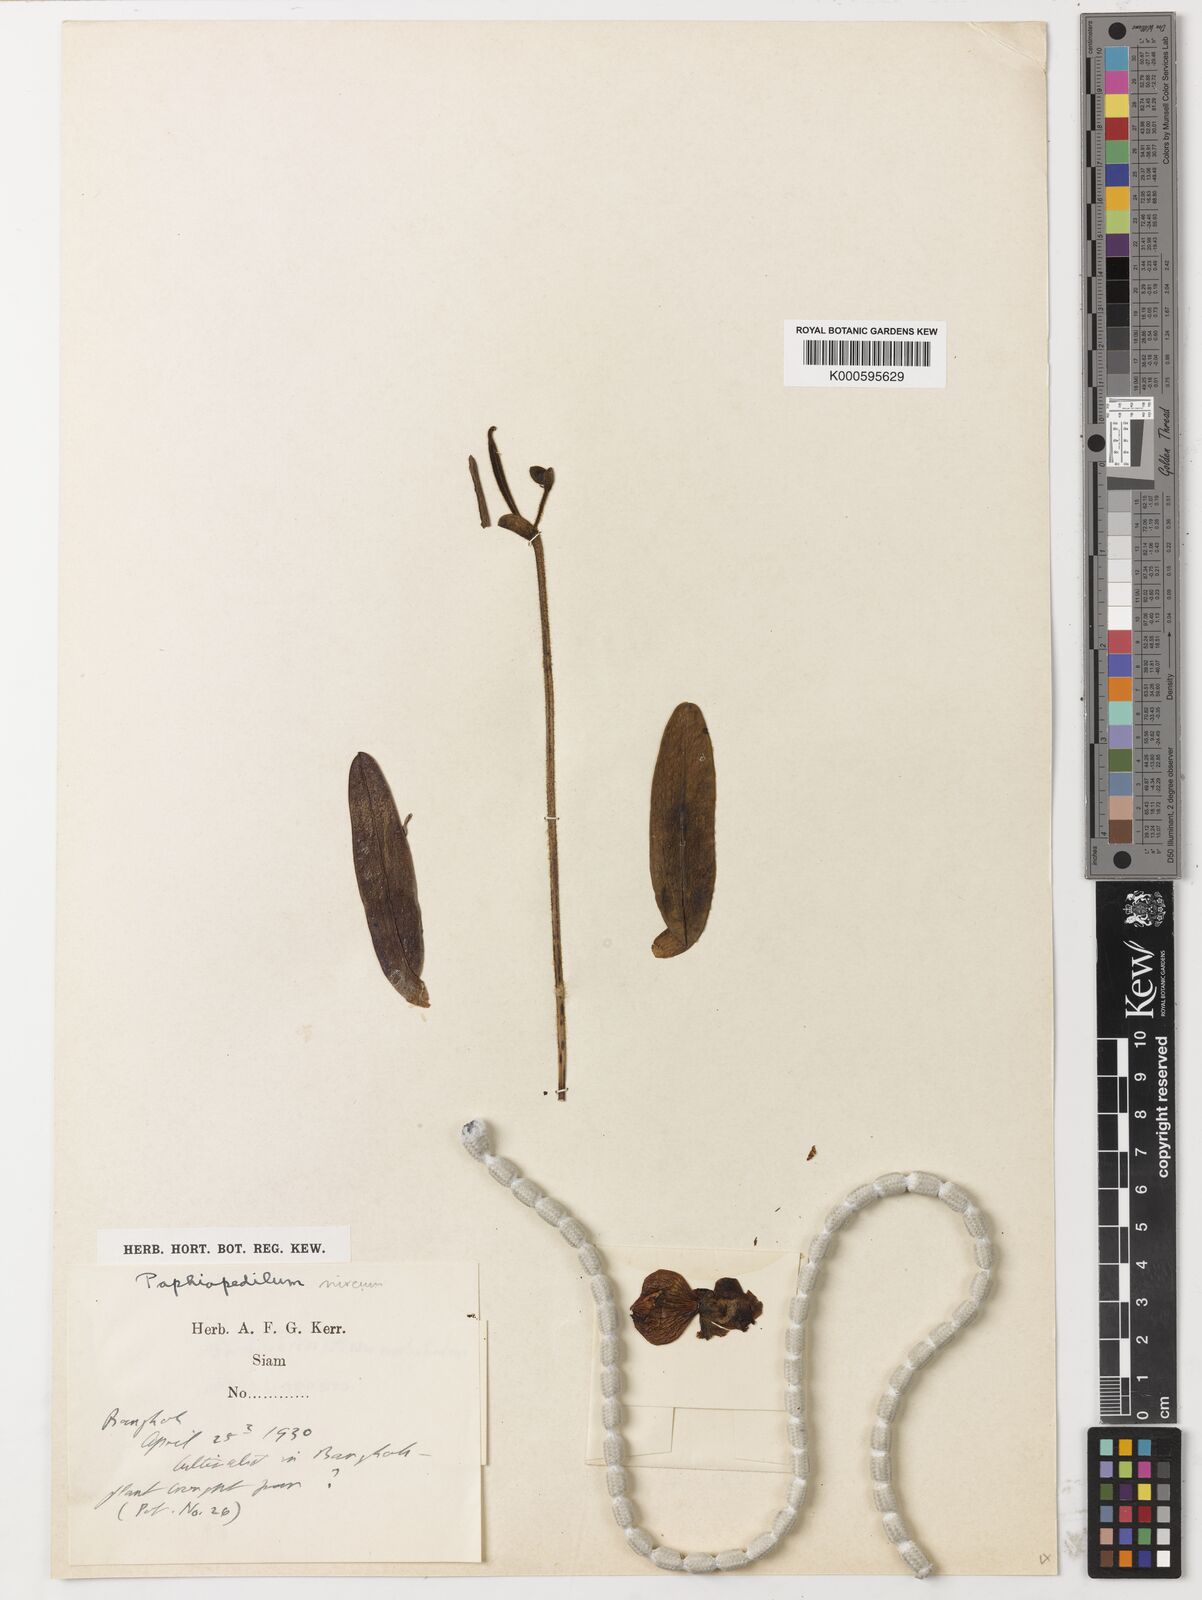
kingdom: Plantae
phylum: Tracheophyta
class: Liliopsida
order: Asparagales
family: Orchidaceae
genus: Paphiopedilum
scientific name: Paphiopedilum niveum
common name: Snow-white paphiopedilum
